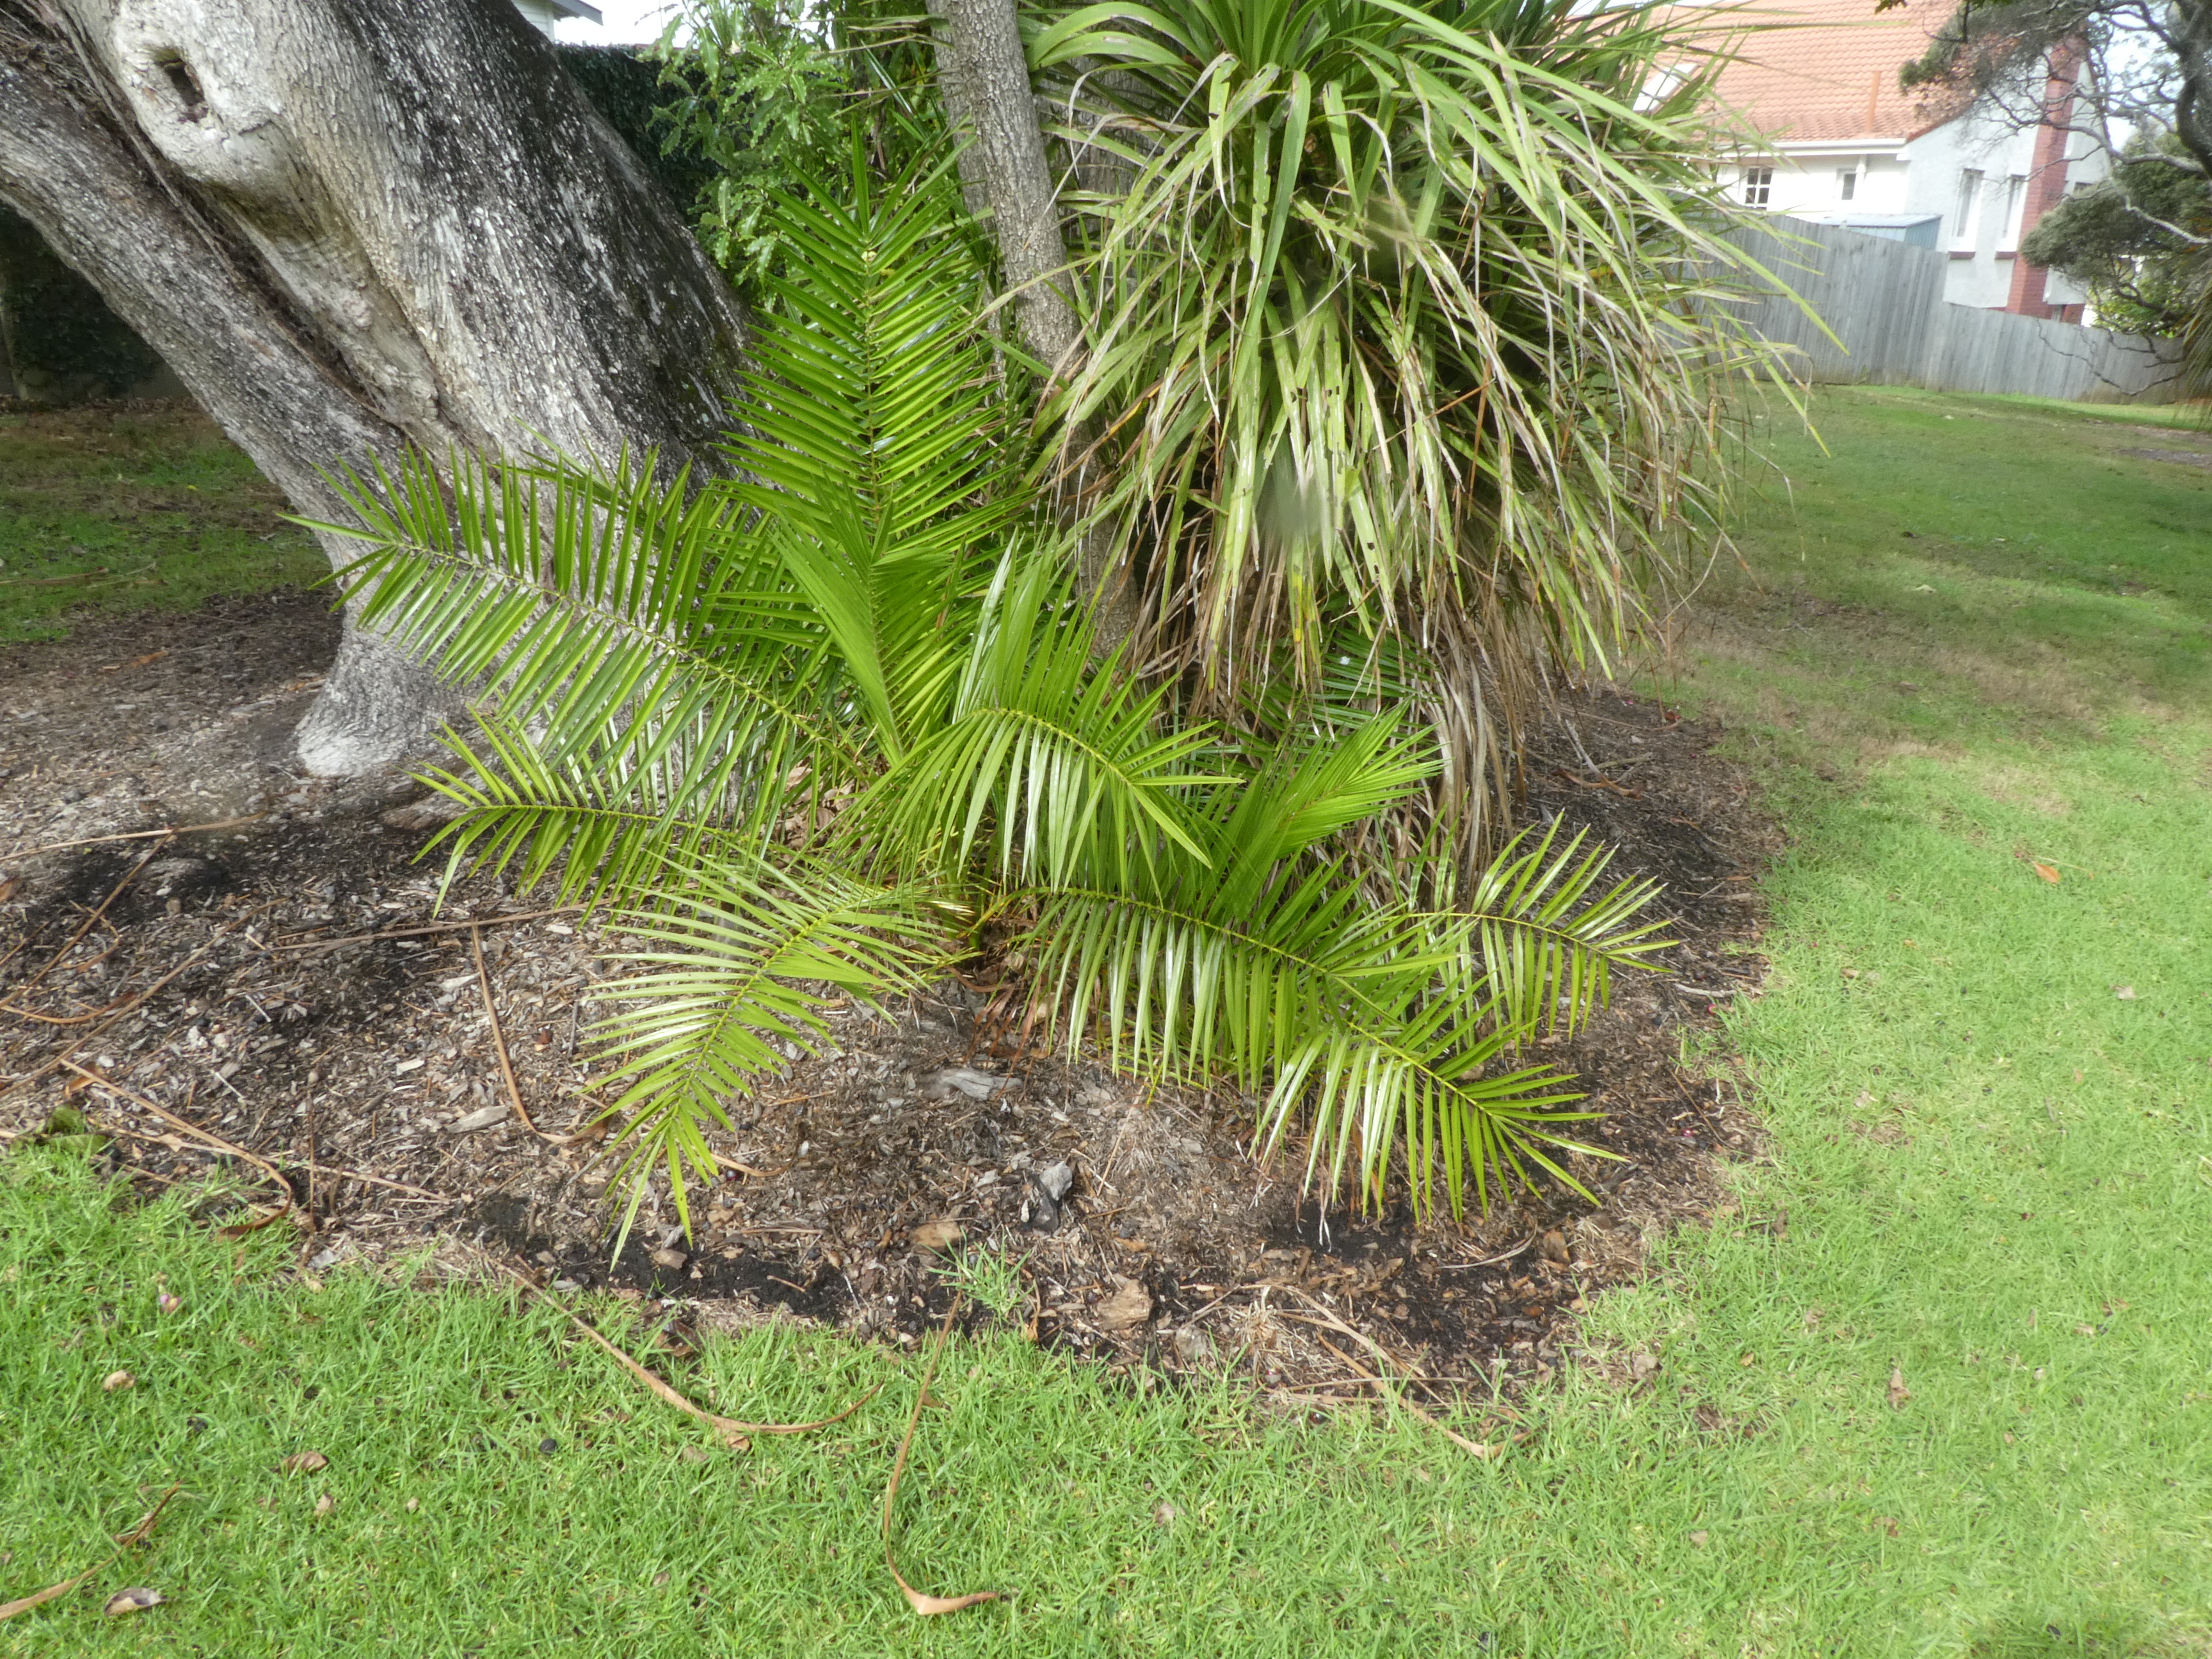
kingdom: Plantae
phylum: Tracheophyta
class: Liliopsida
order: Arecales
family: Arecaceae
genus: Phoenix
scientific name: Phoenix reclinata
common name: Senegal date palm
